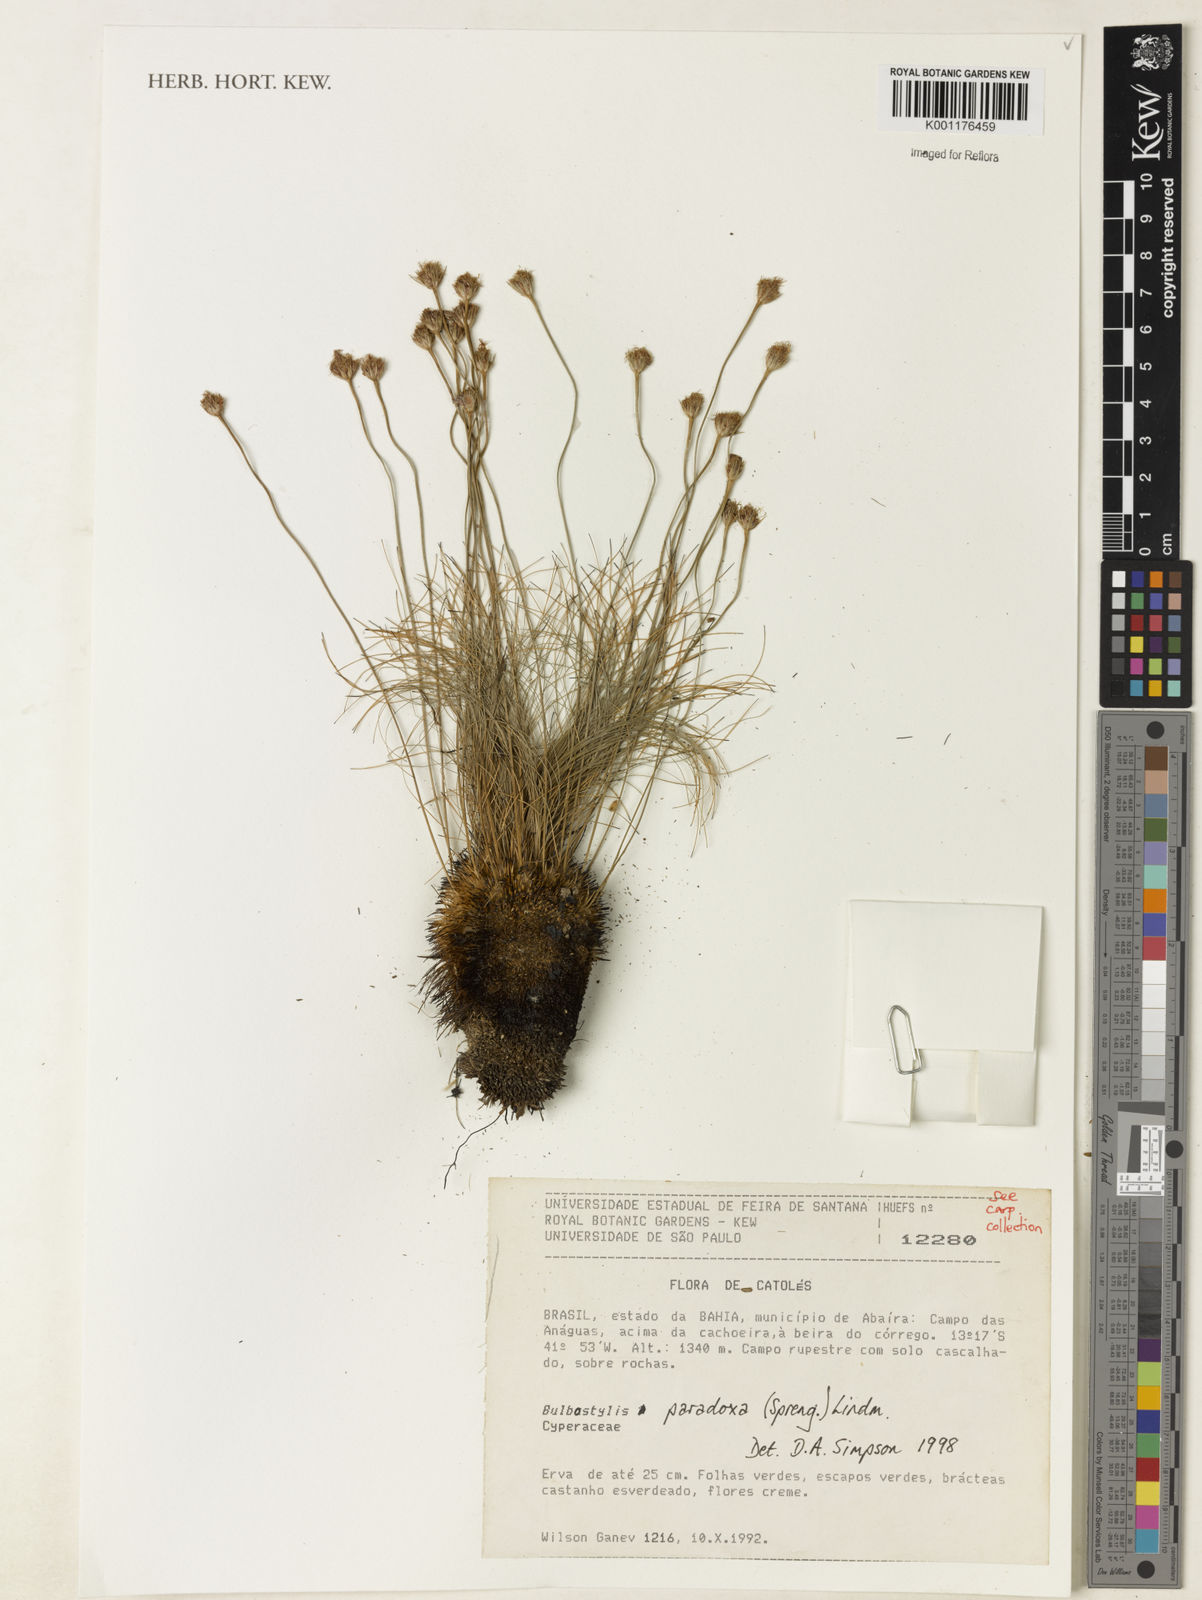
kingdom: Plantae
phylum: Tracheophyta
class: Liliopsida
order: Poales
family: Cyperaceae
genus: Bulbostylis
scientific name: Bulbostylis paradoxa
